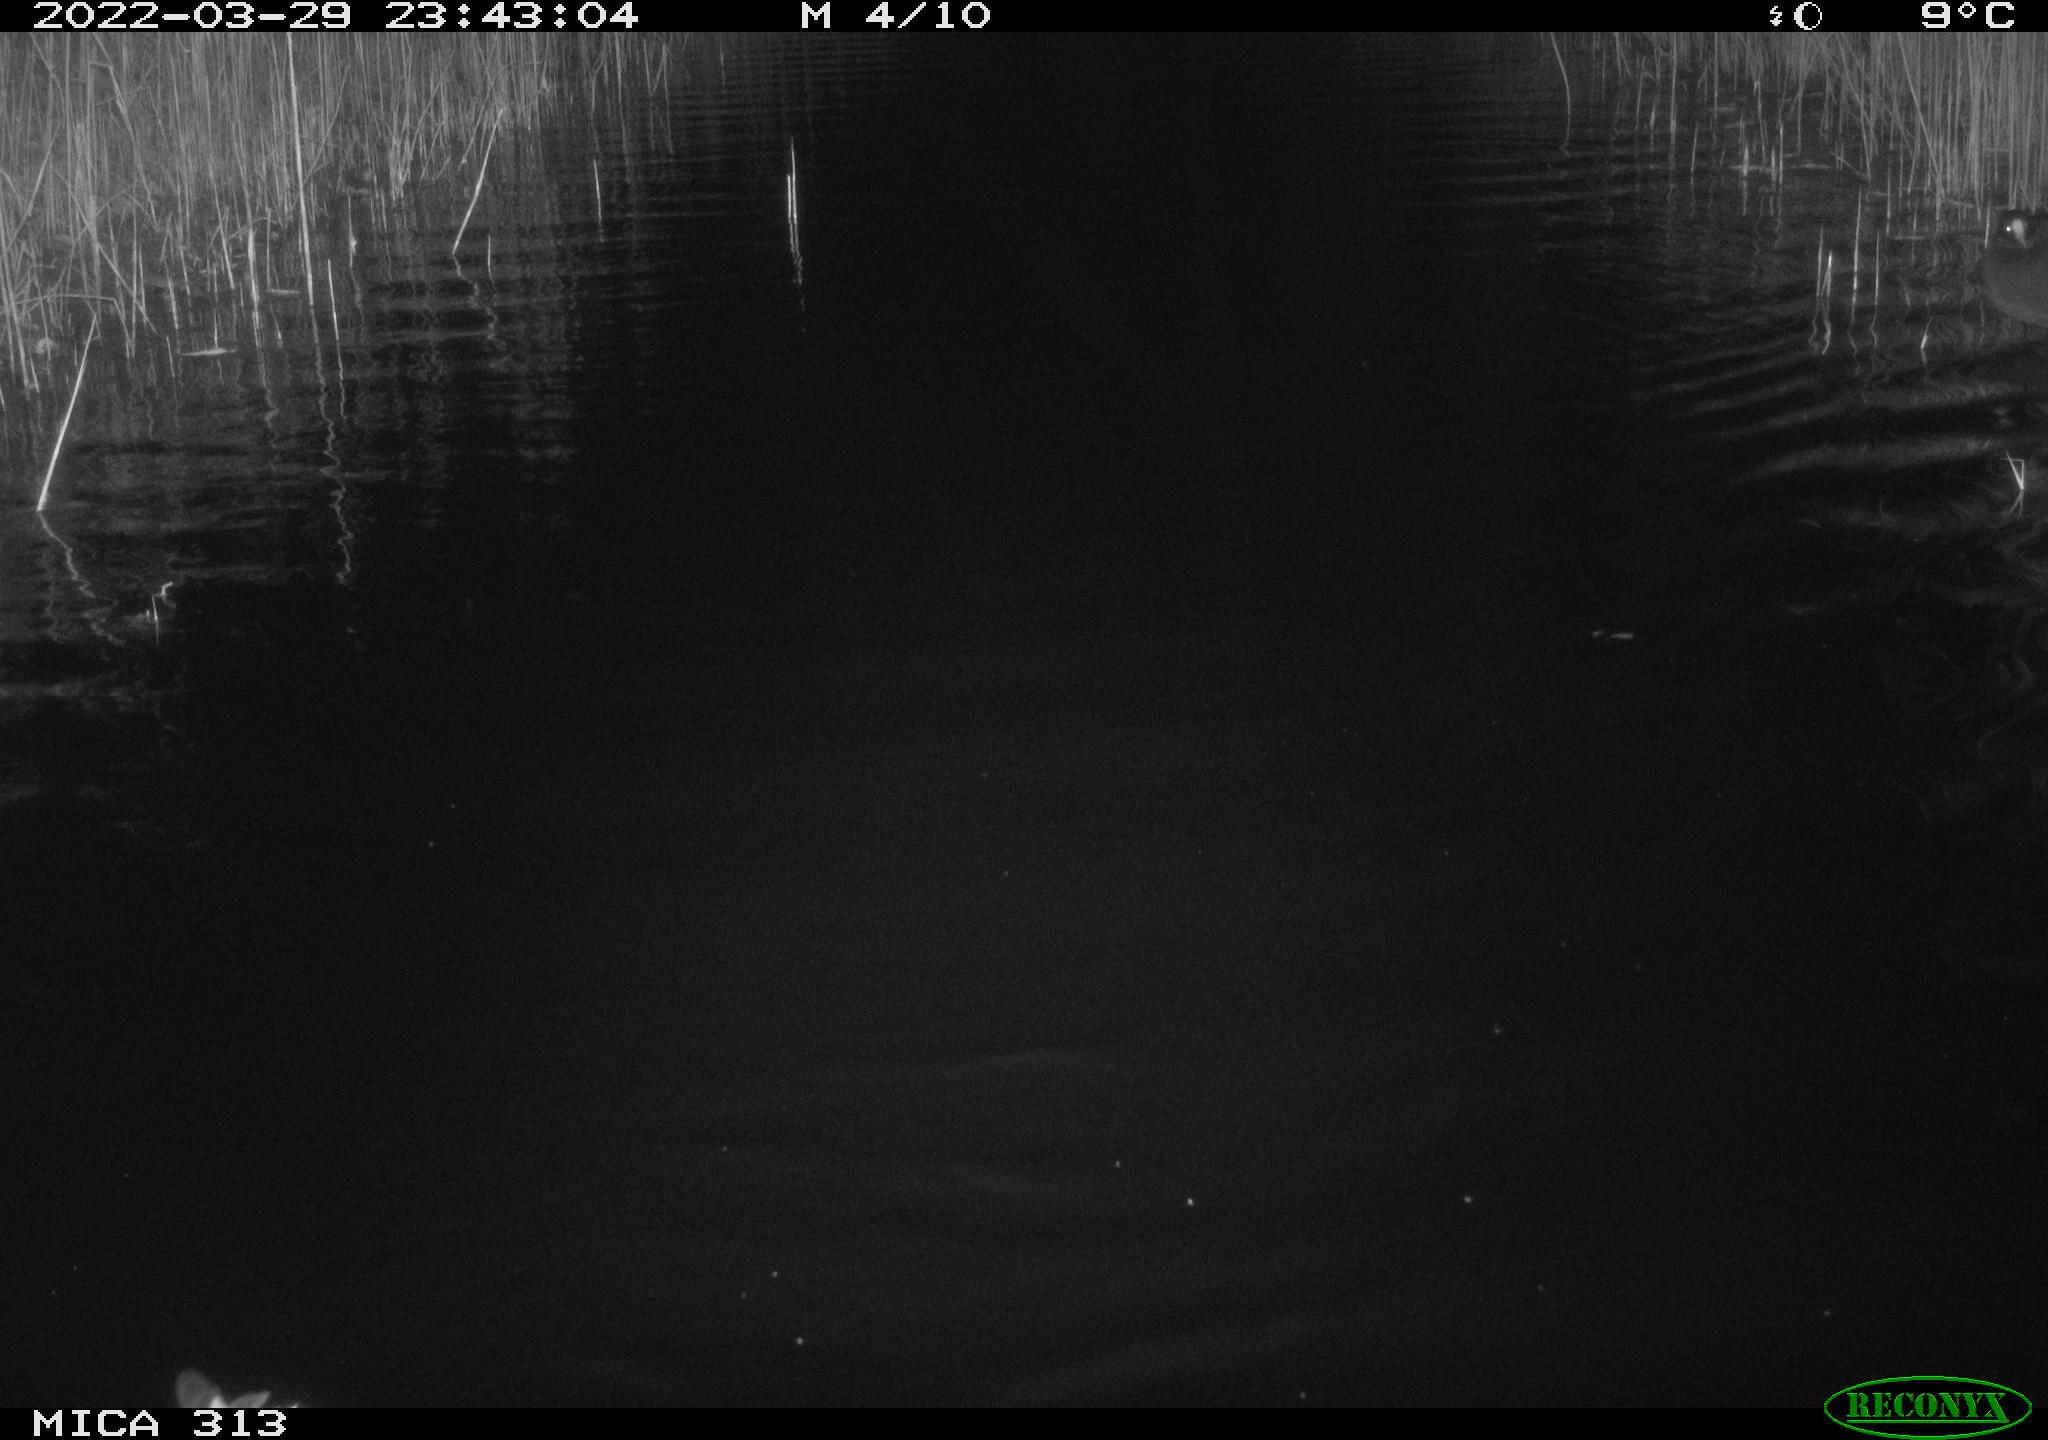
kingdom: Animalia
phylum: Chordata
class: Aves
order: Anseriformes
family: Anatidae
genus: Anas
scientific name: Anas platyrhynchos
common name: Mallard
